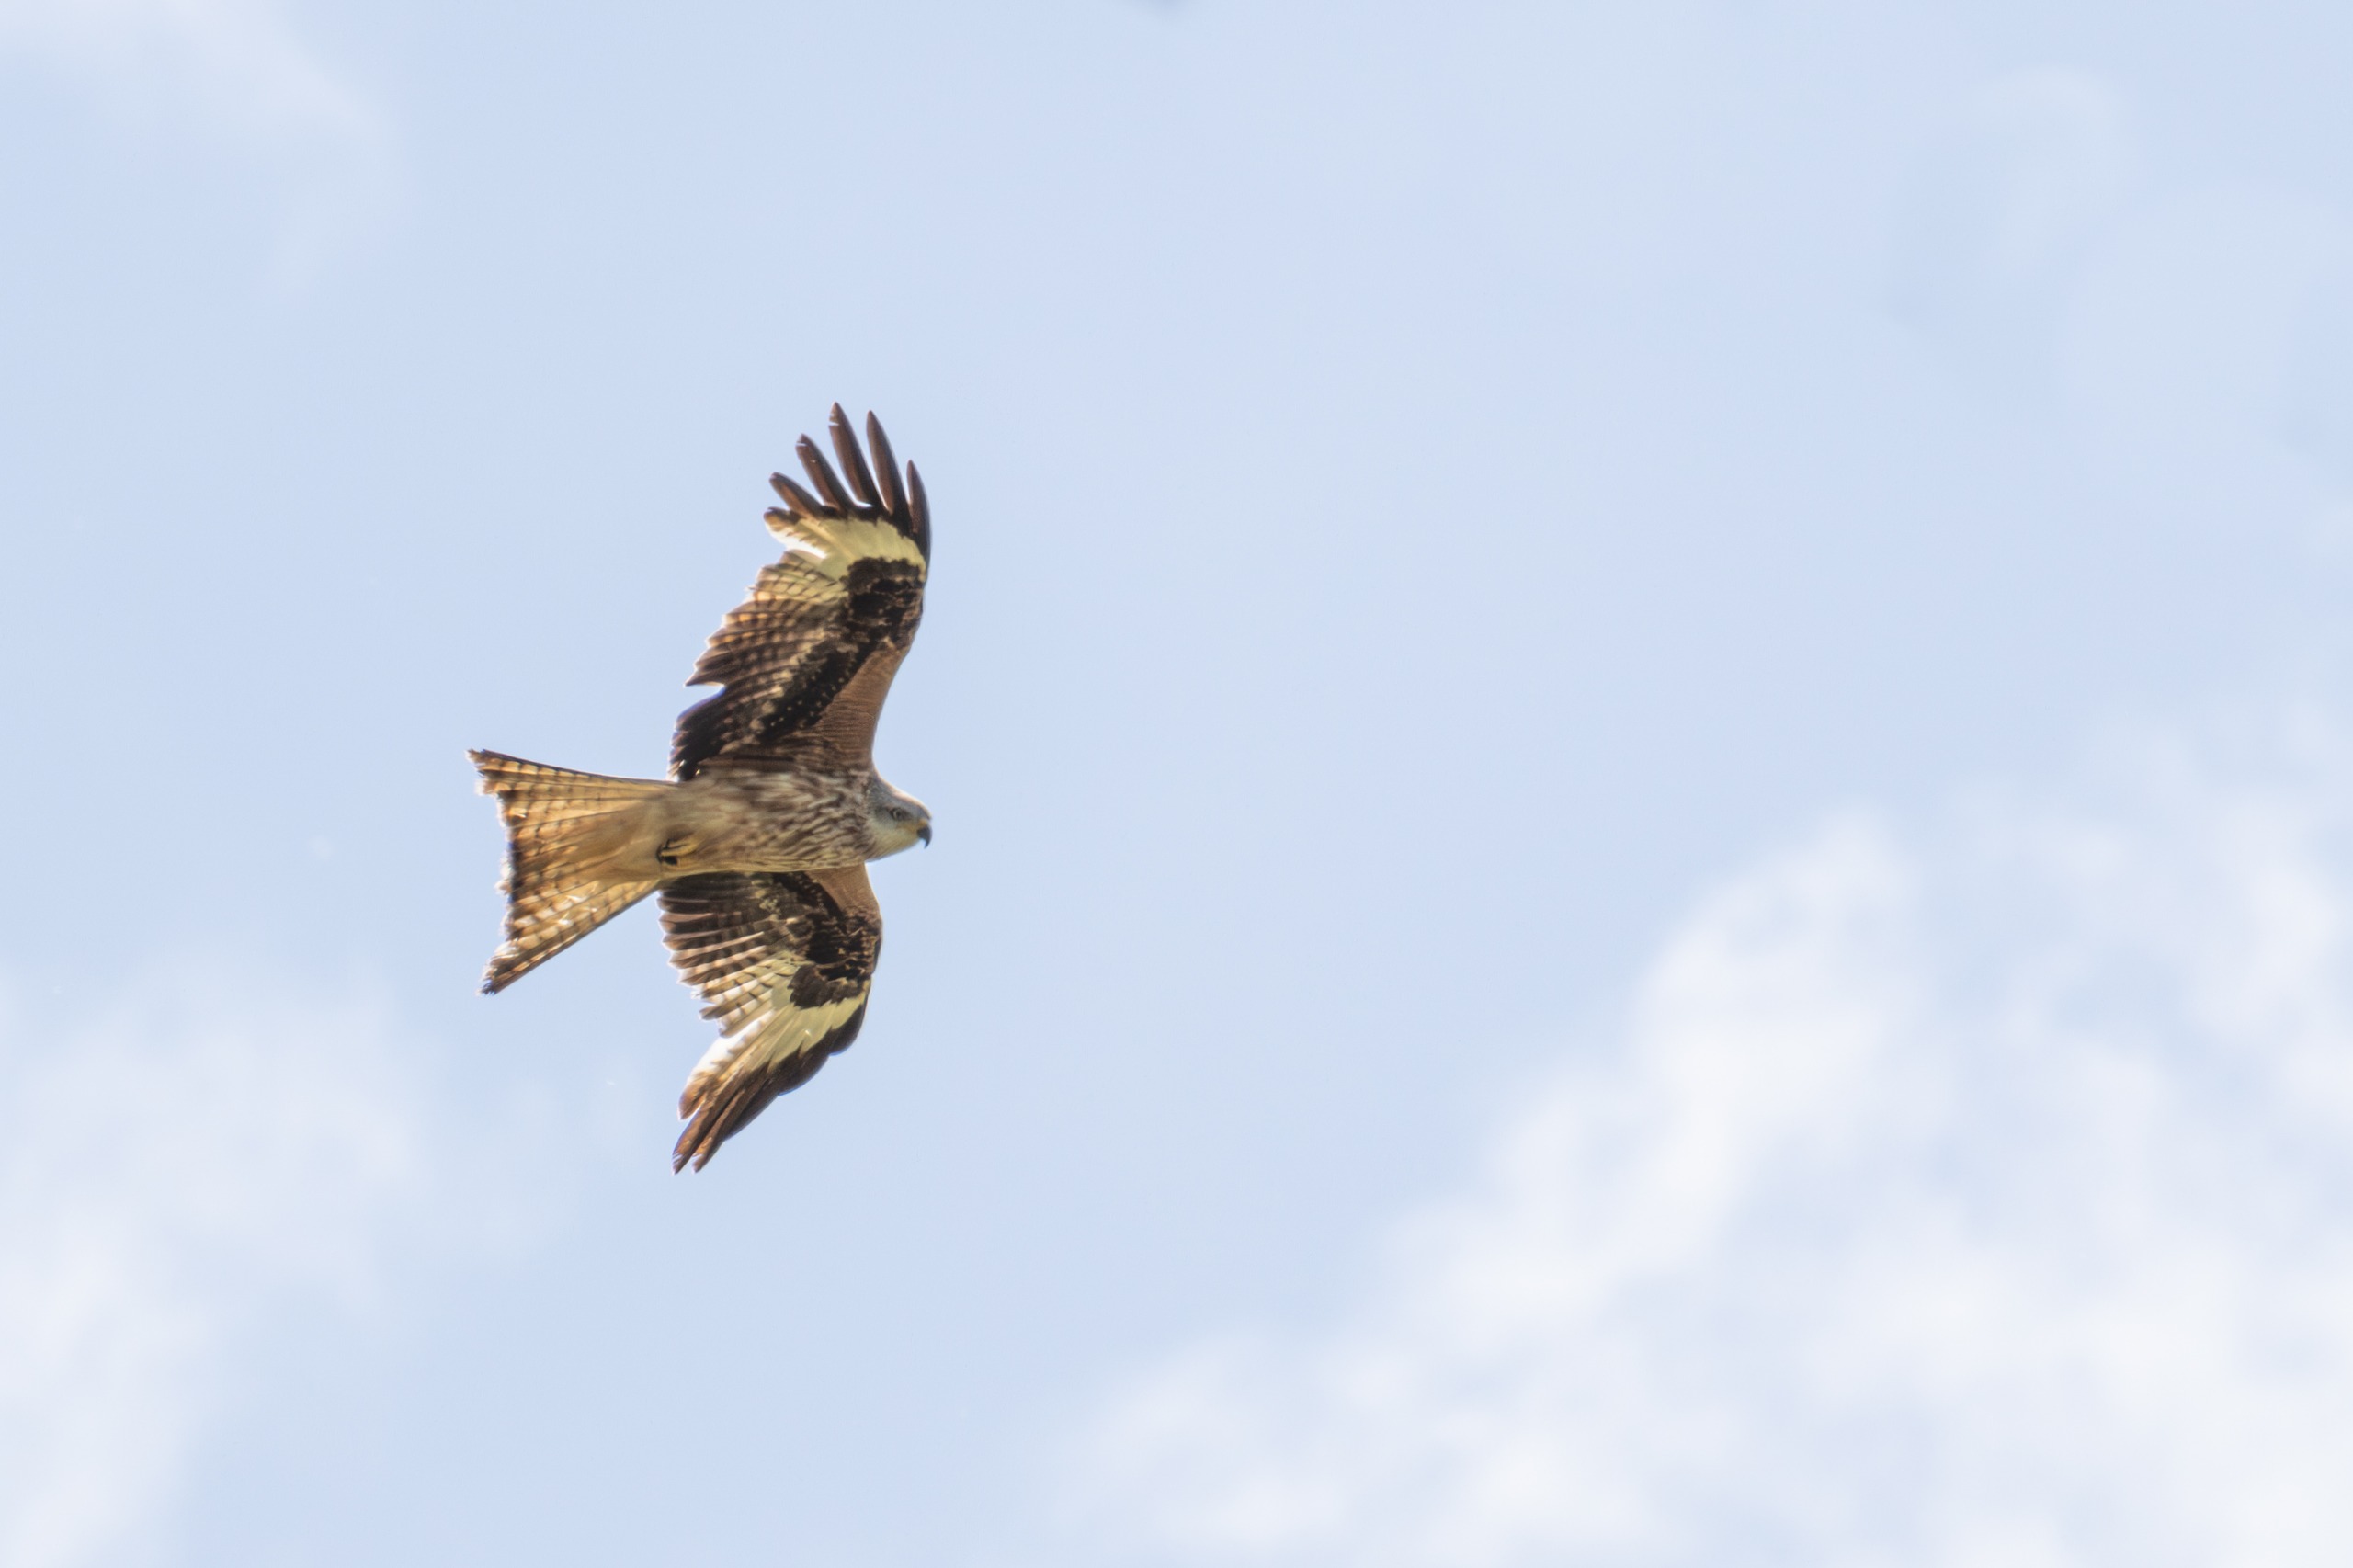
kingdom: Animalia
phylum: Chordata
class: Aves
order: Accipitriformes
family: Accipitridae
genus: Milvus
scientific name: Milvus milvus
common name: Rød glente
